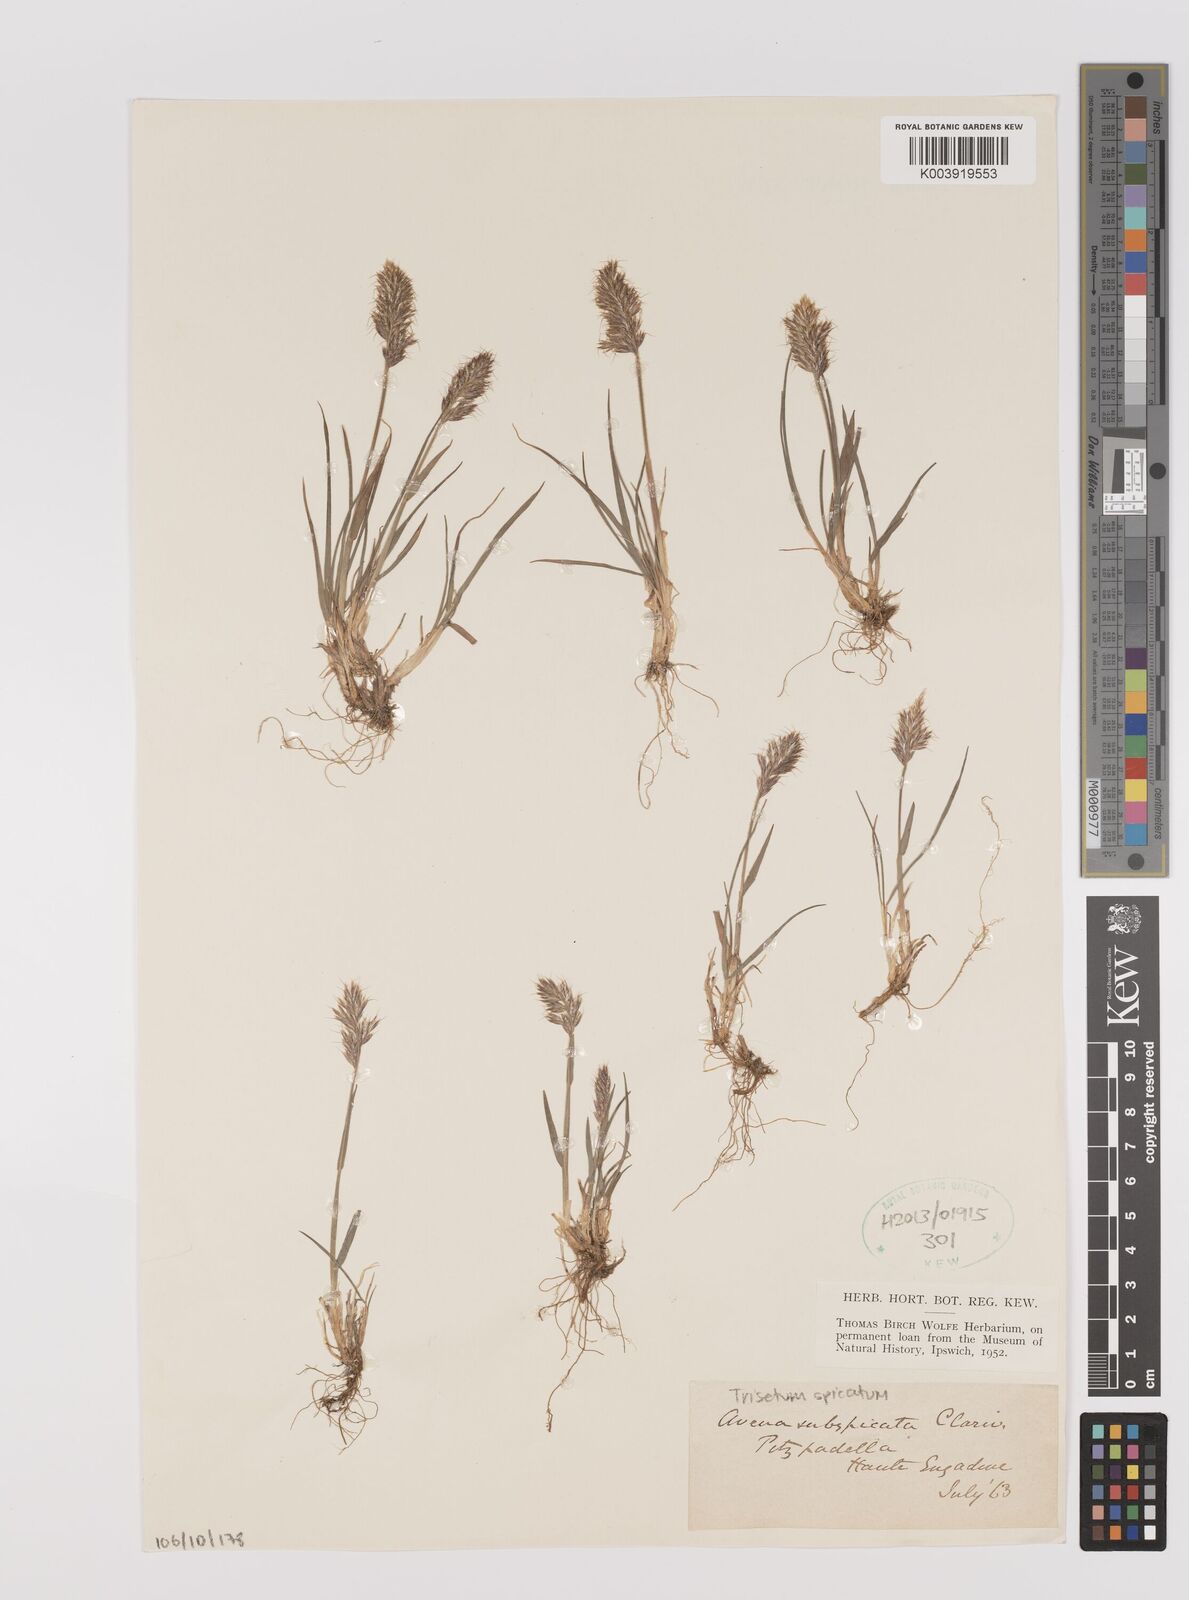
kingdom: Plantae
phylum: Tracheophyta
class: Liliopsida
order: Poales
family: Poaceae
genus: Koeleria
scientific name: Koeleria spicata
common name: Mountain trisetum
